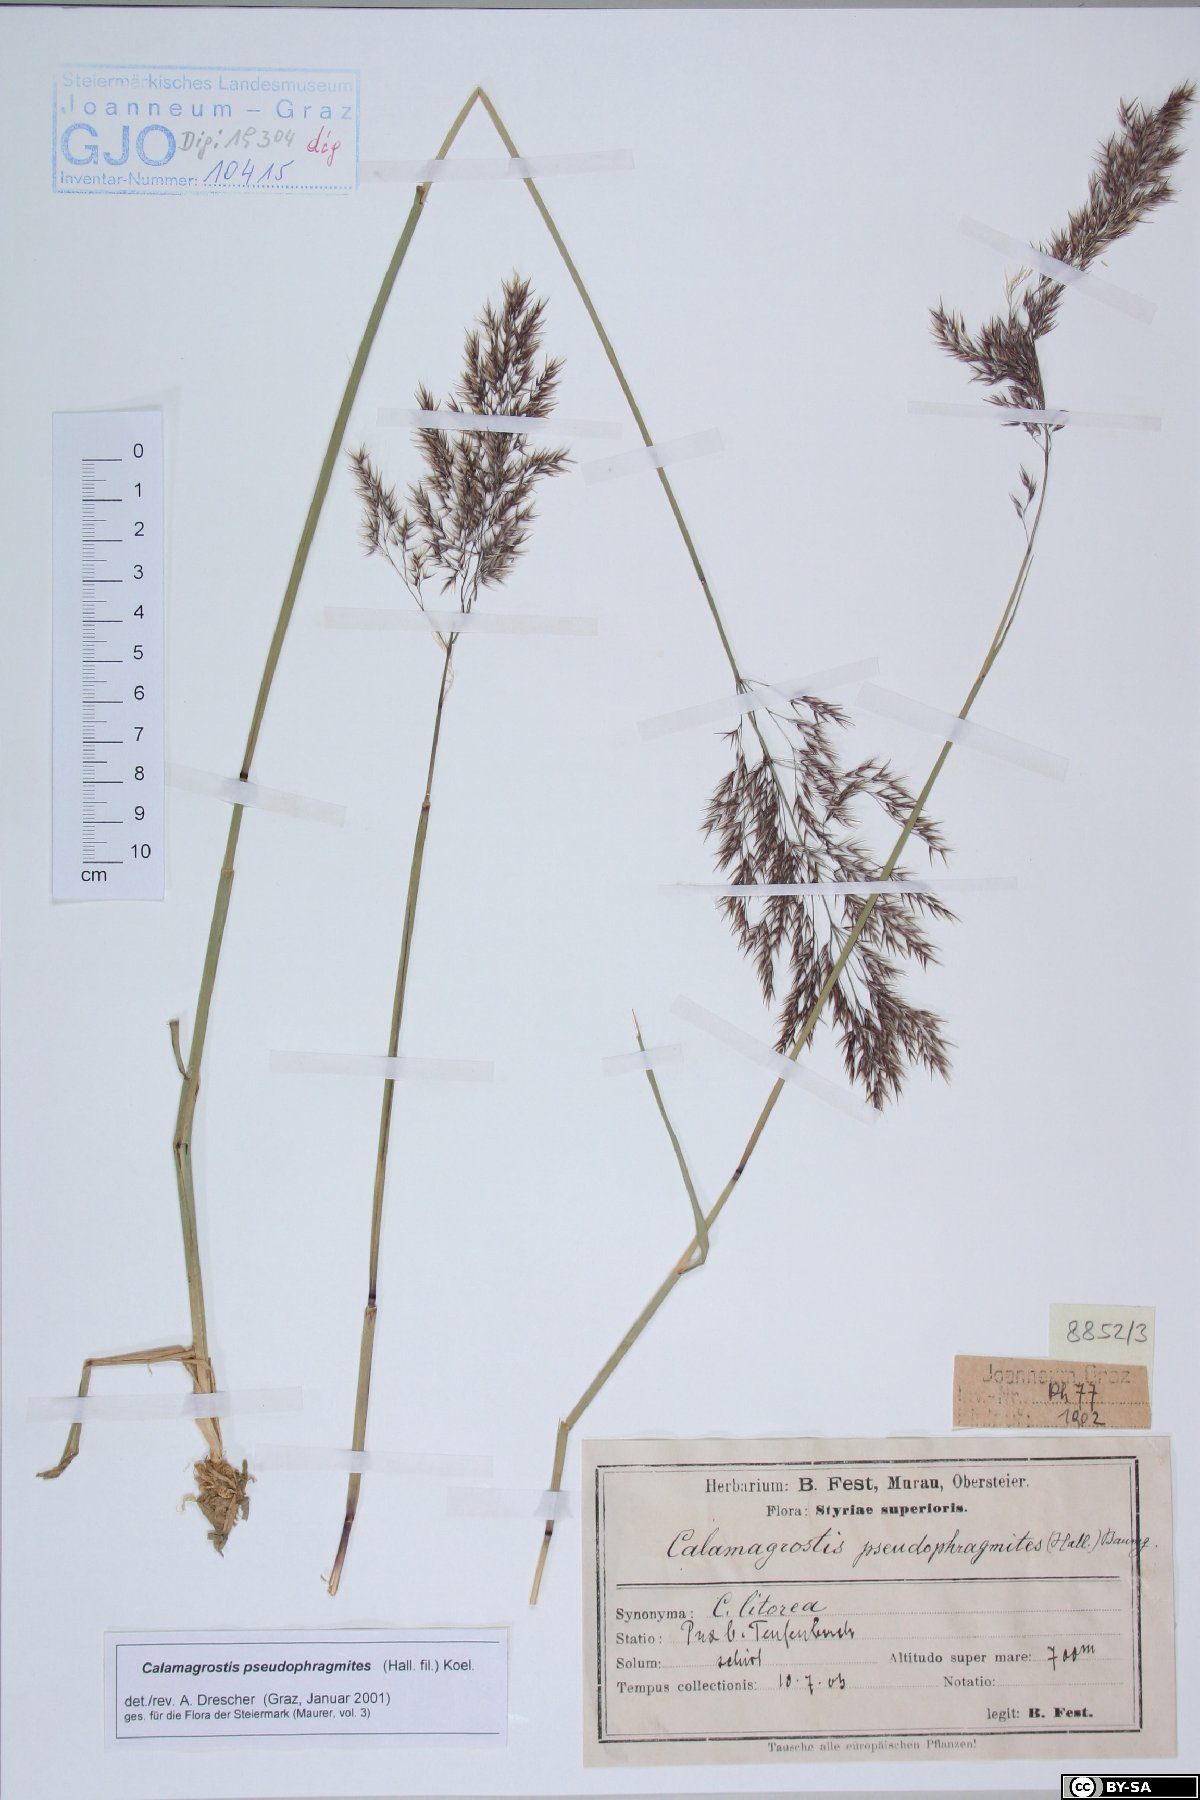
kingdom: Plantae
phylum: Tracheophyta
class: Liliopsida
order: Poales
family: Poaceae
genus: Calamagrostis
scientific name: Calamagrostis pseudophragmites
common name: Coastal small-reed
